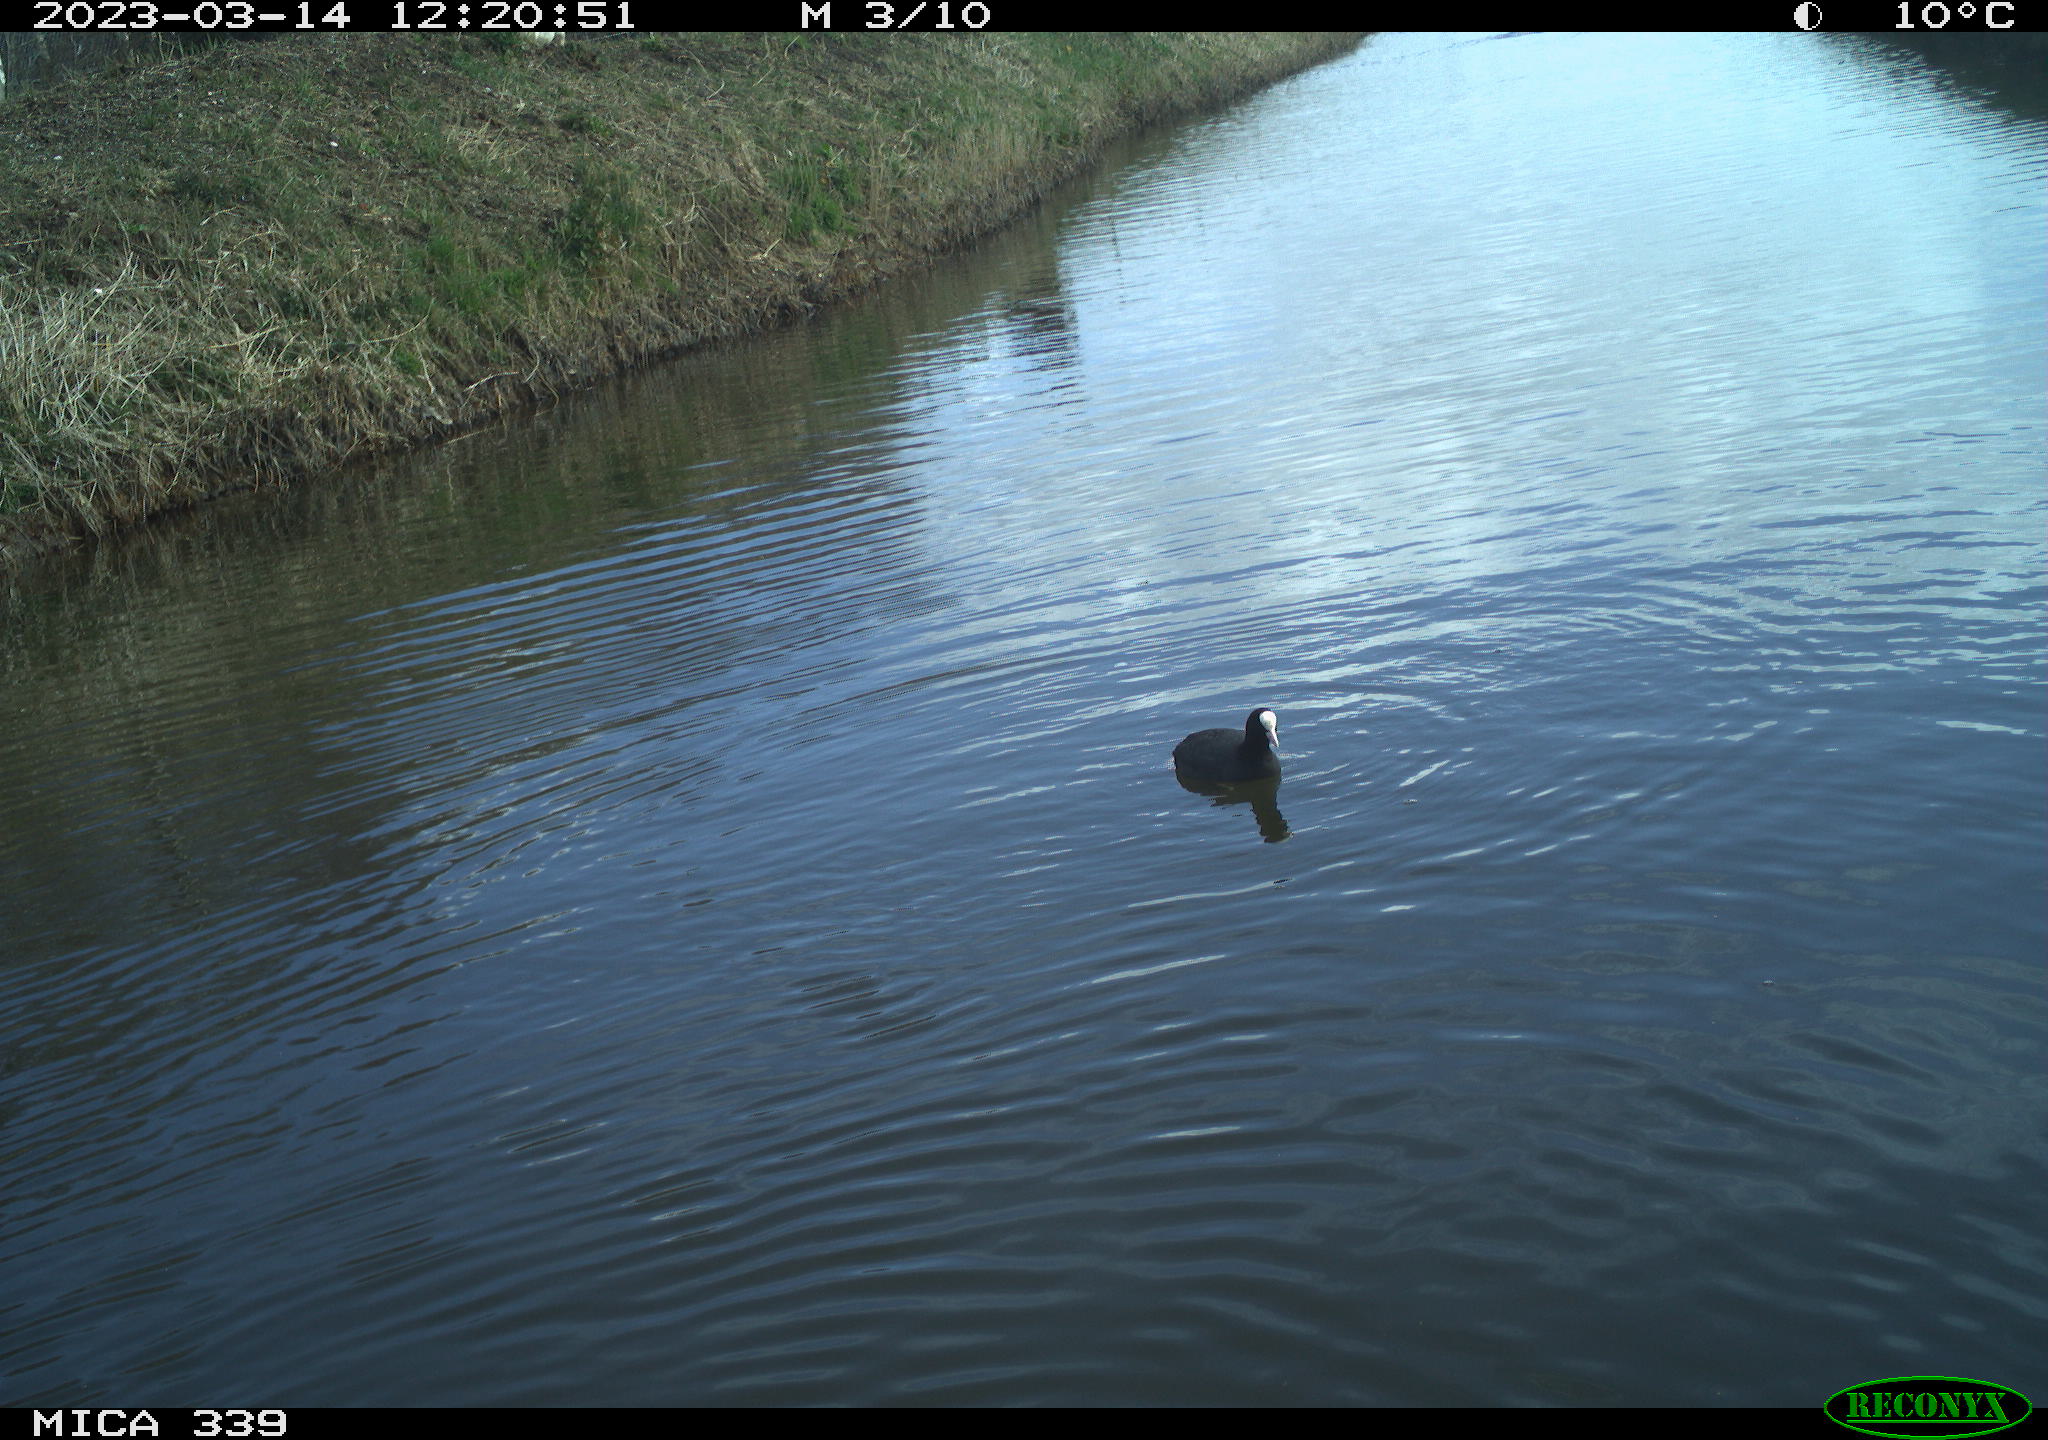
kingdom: Animalia
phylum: Chordata
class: Aves
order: Suliformes
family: Phalacrocoracidae
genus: Phalacrocorax
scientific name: Phalacrocorax carbo
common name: Great cormorant
